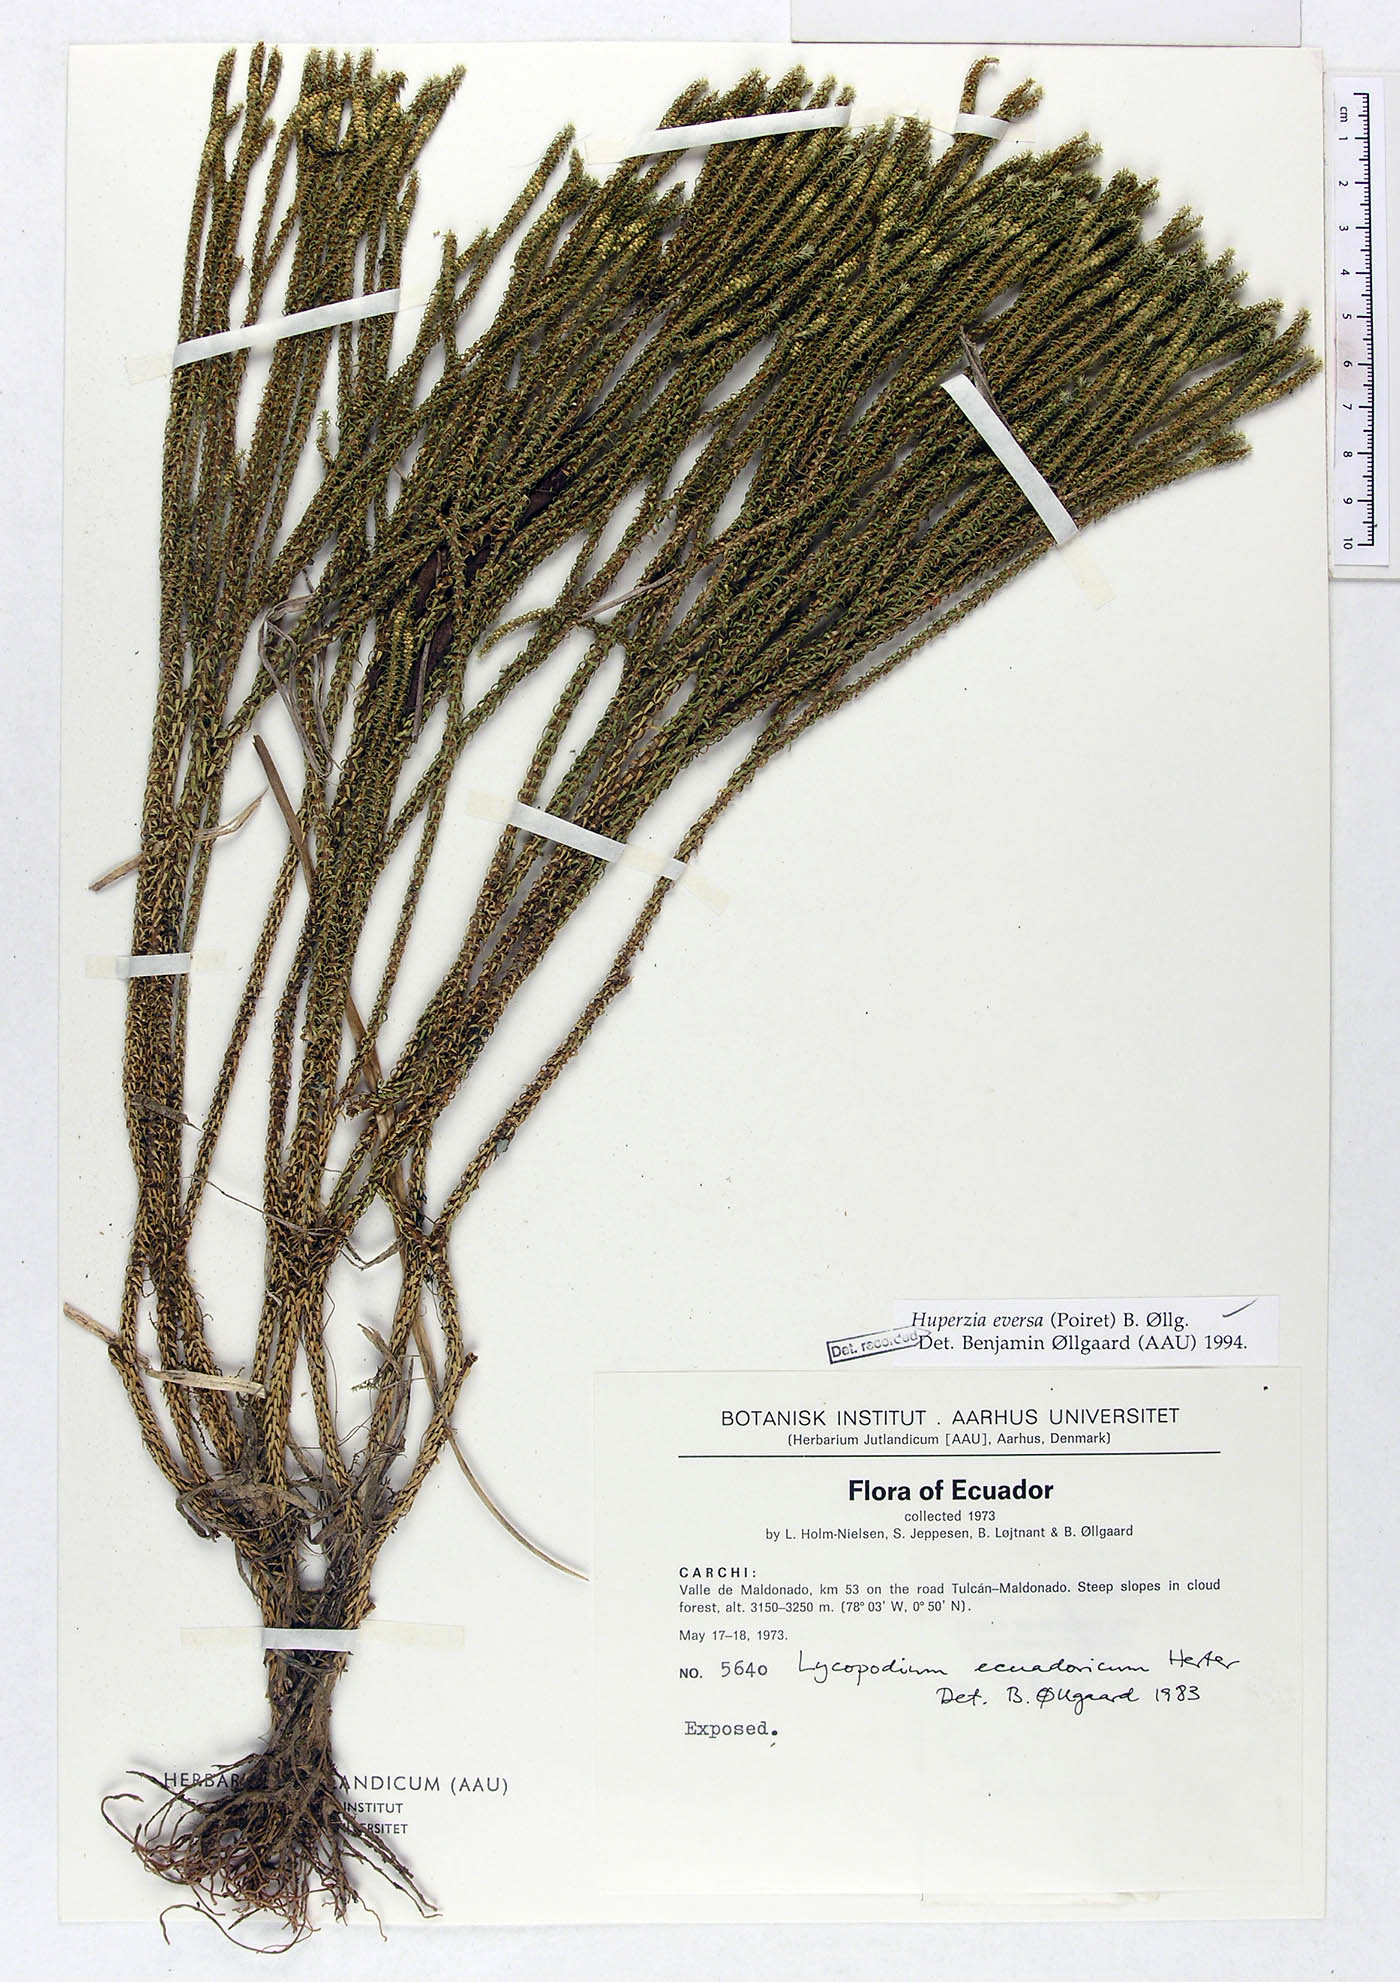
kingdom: Plantae
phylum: Tracheophyta
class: Lycopodiopsida
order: Lycopodiales
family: Lycopodiaceae
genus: Phlegmariurus
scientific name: Phlegmariurus eversus
